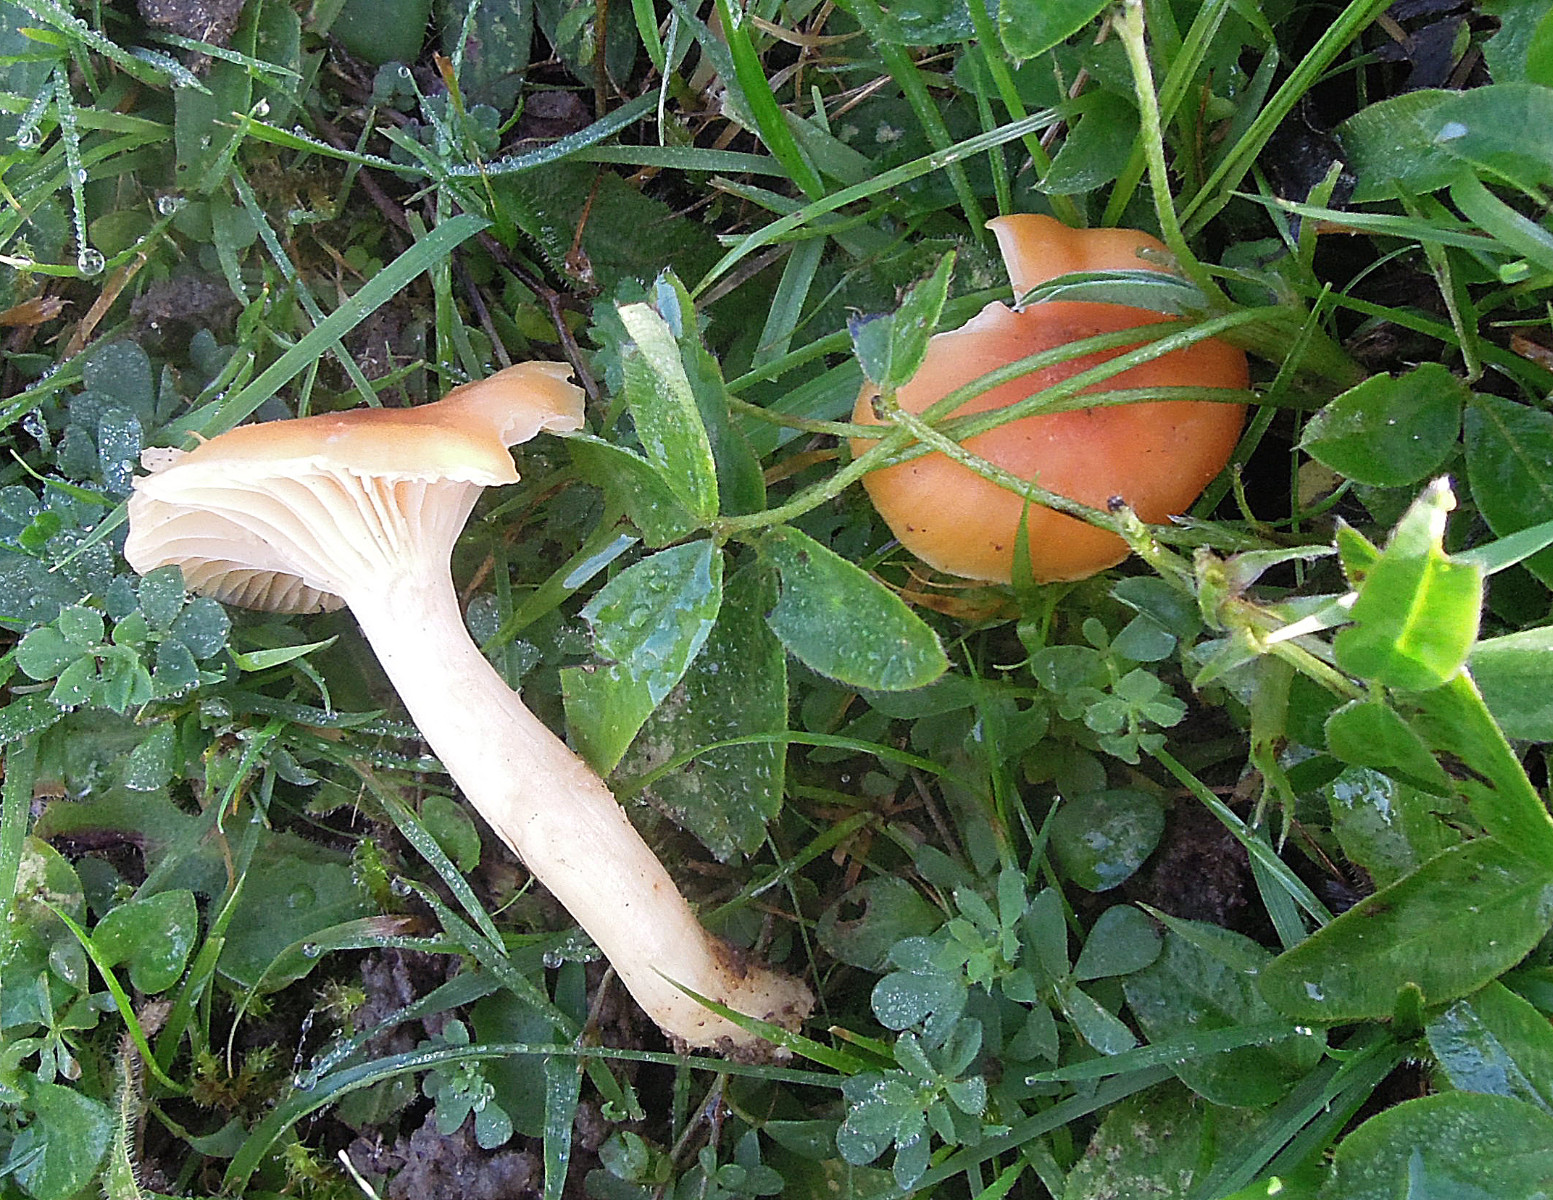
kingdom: Fungi
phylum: Basidiomycota
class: Agaricomycetes
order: Agaricales
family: Hygrophoraceae
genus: Cuphophyllus
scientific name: Cuphophyllus pratensis
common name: eng-vokshat
